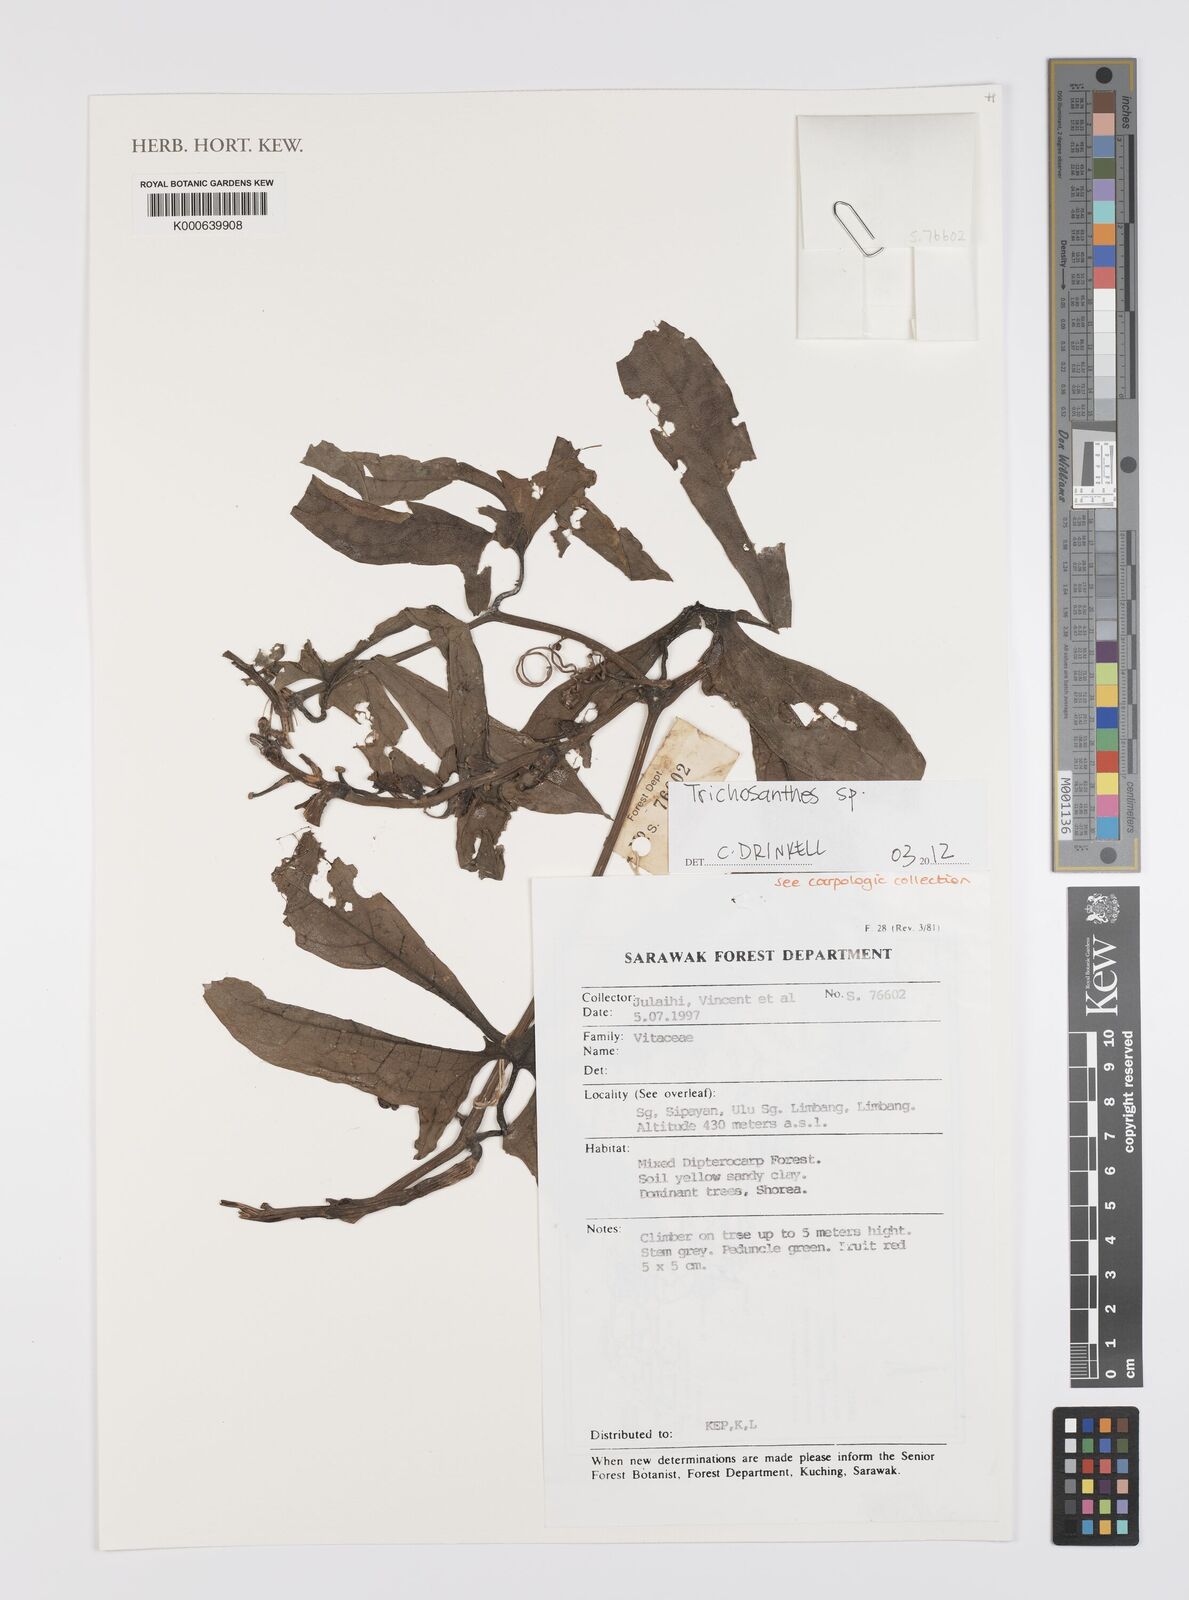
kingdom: Plantae
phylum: Tracheophyta
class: Magnoliopsida
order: Cucurbitales
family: Cucurbitaceae
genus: Trichosanthes
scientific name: Trichosanthes
